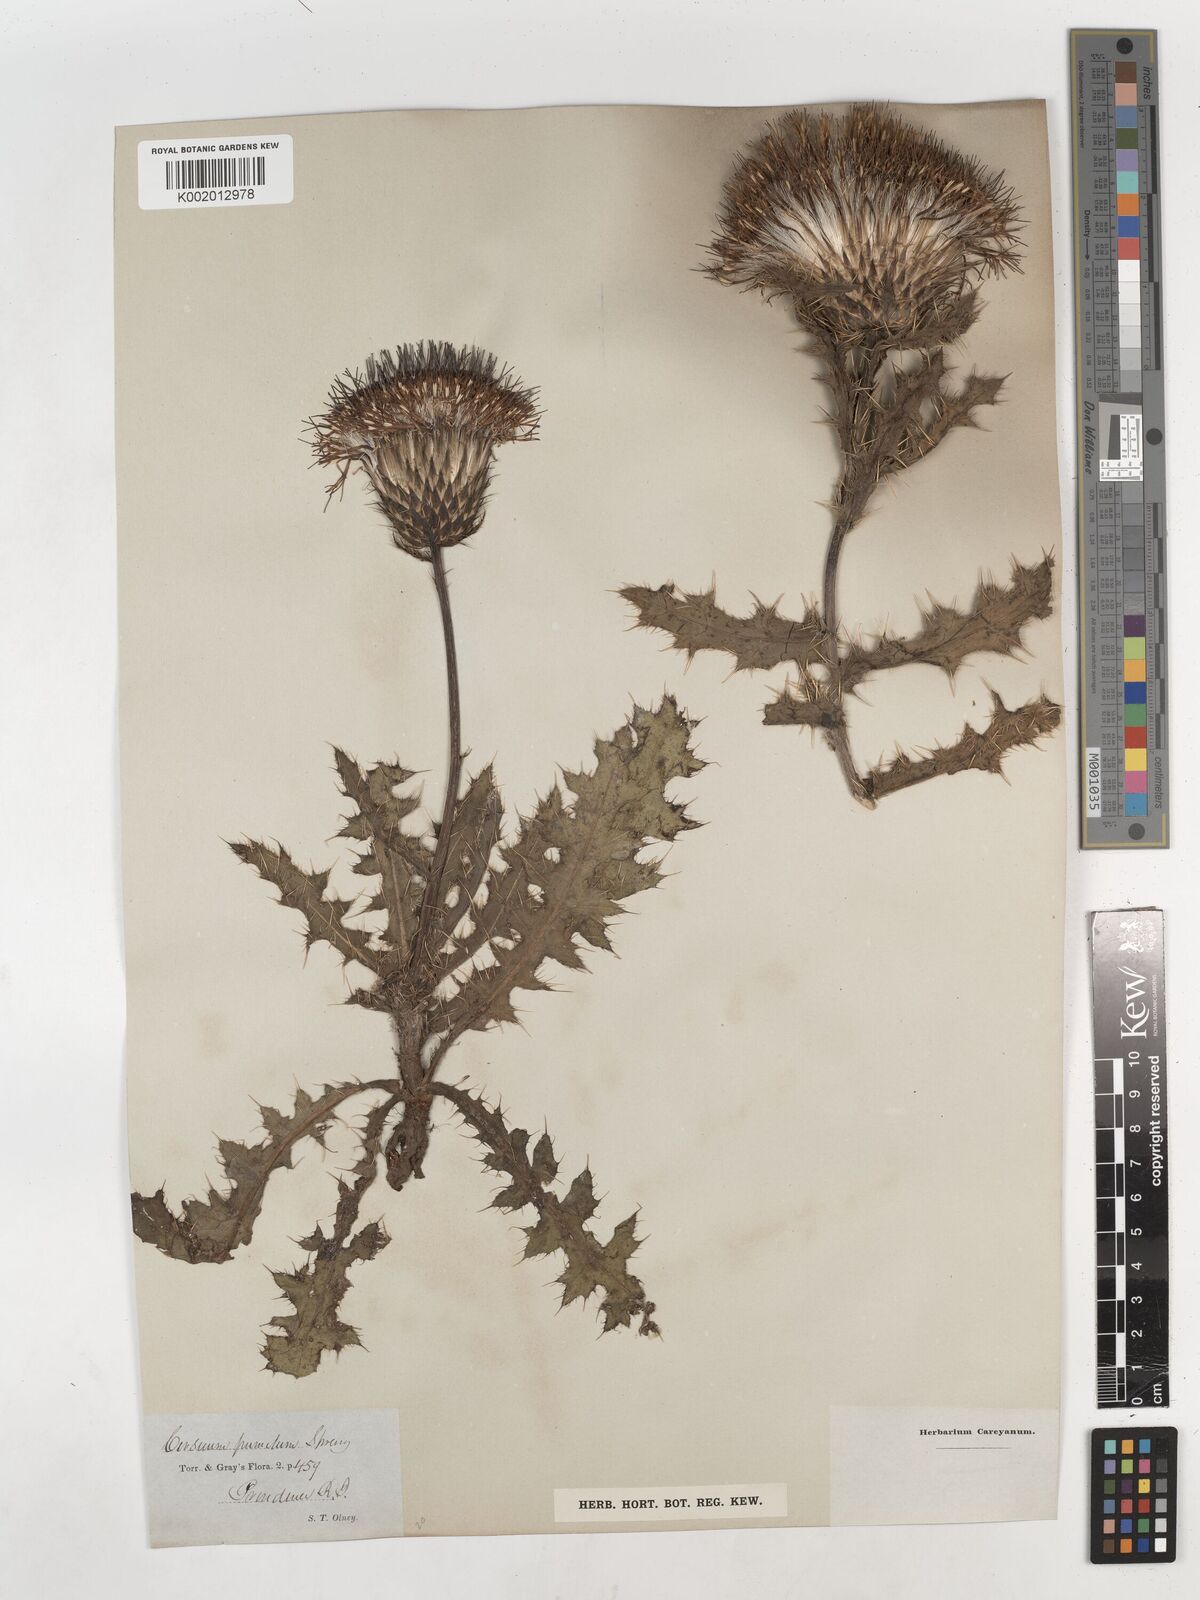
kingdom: Plantae
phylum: Tracheophyta
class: Magnoliopsida
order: Asterales
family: Asteraceae
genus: Cirsium
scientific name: Cirsium pumilum
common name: Pasture thistle
